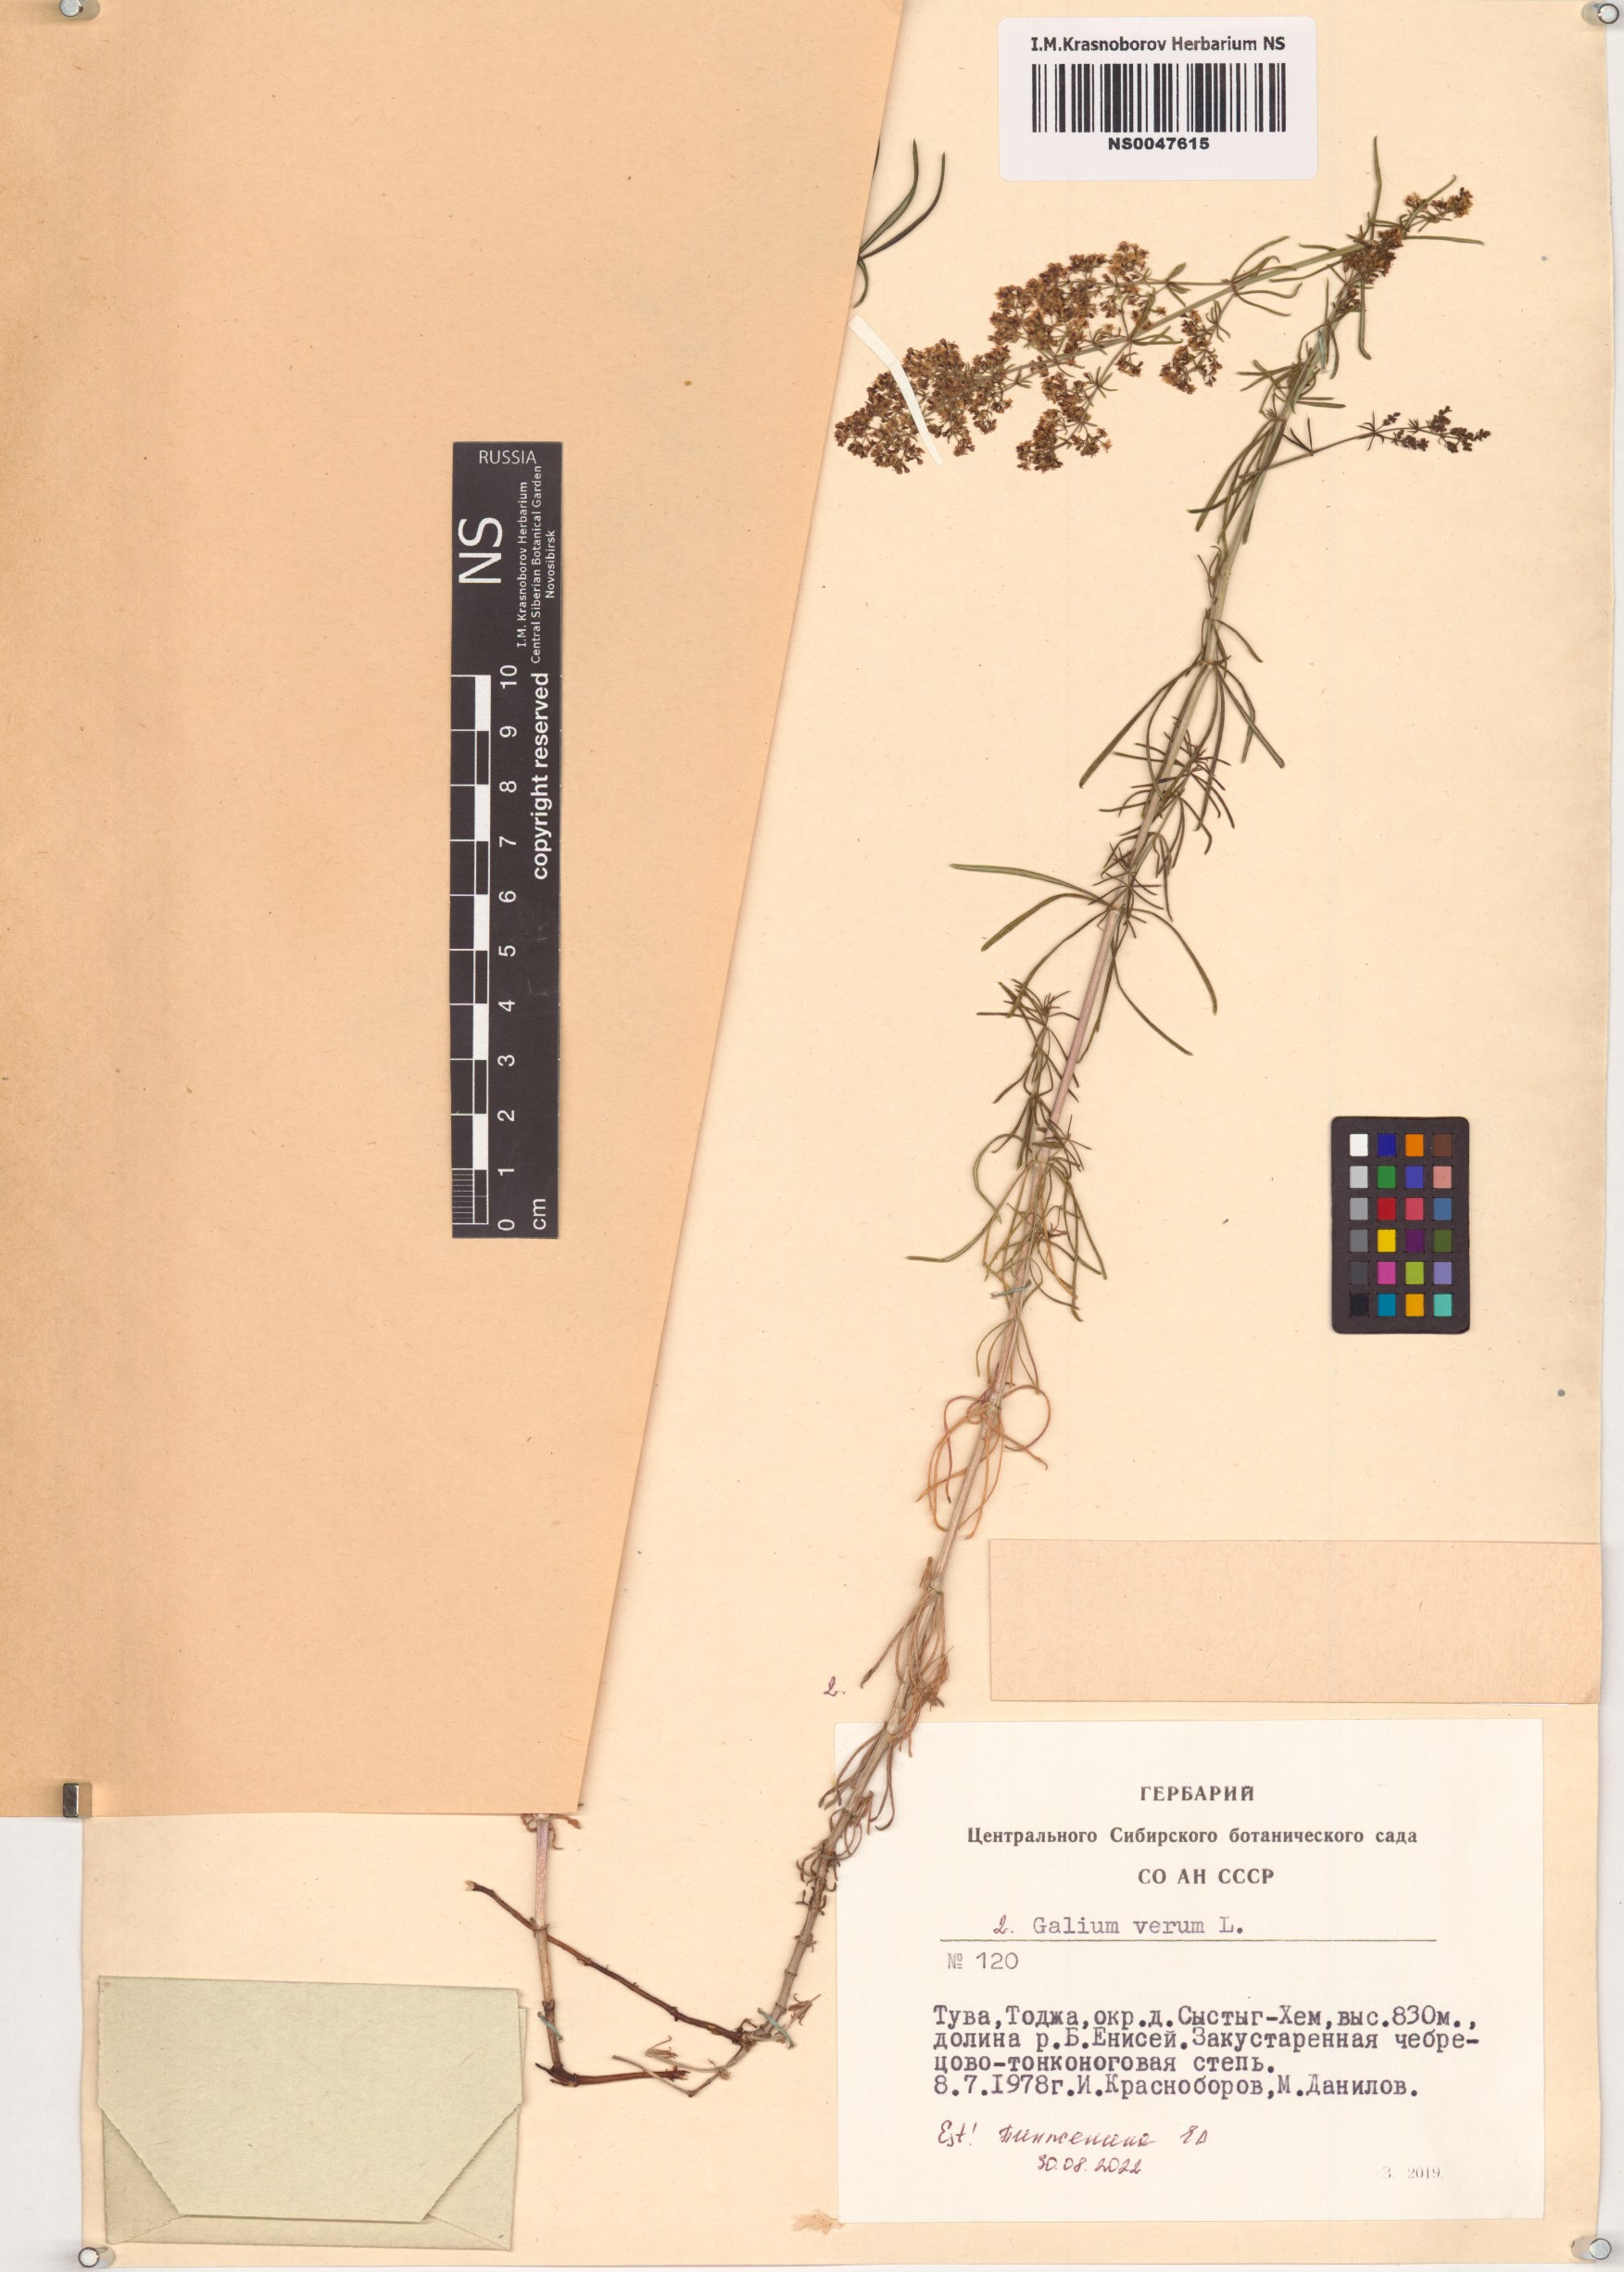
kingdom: Plantae
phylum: Tracheophyta
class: Magnoliopsida
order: Gentianales
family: Rubiaceae
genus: Galium
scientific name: Galium verum
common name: Lady's bedstraw
